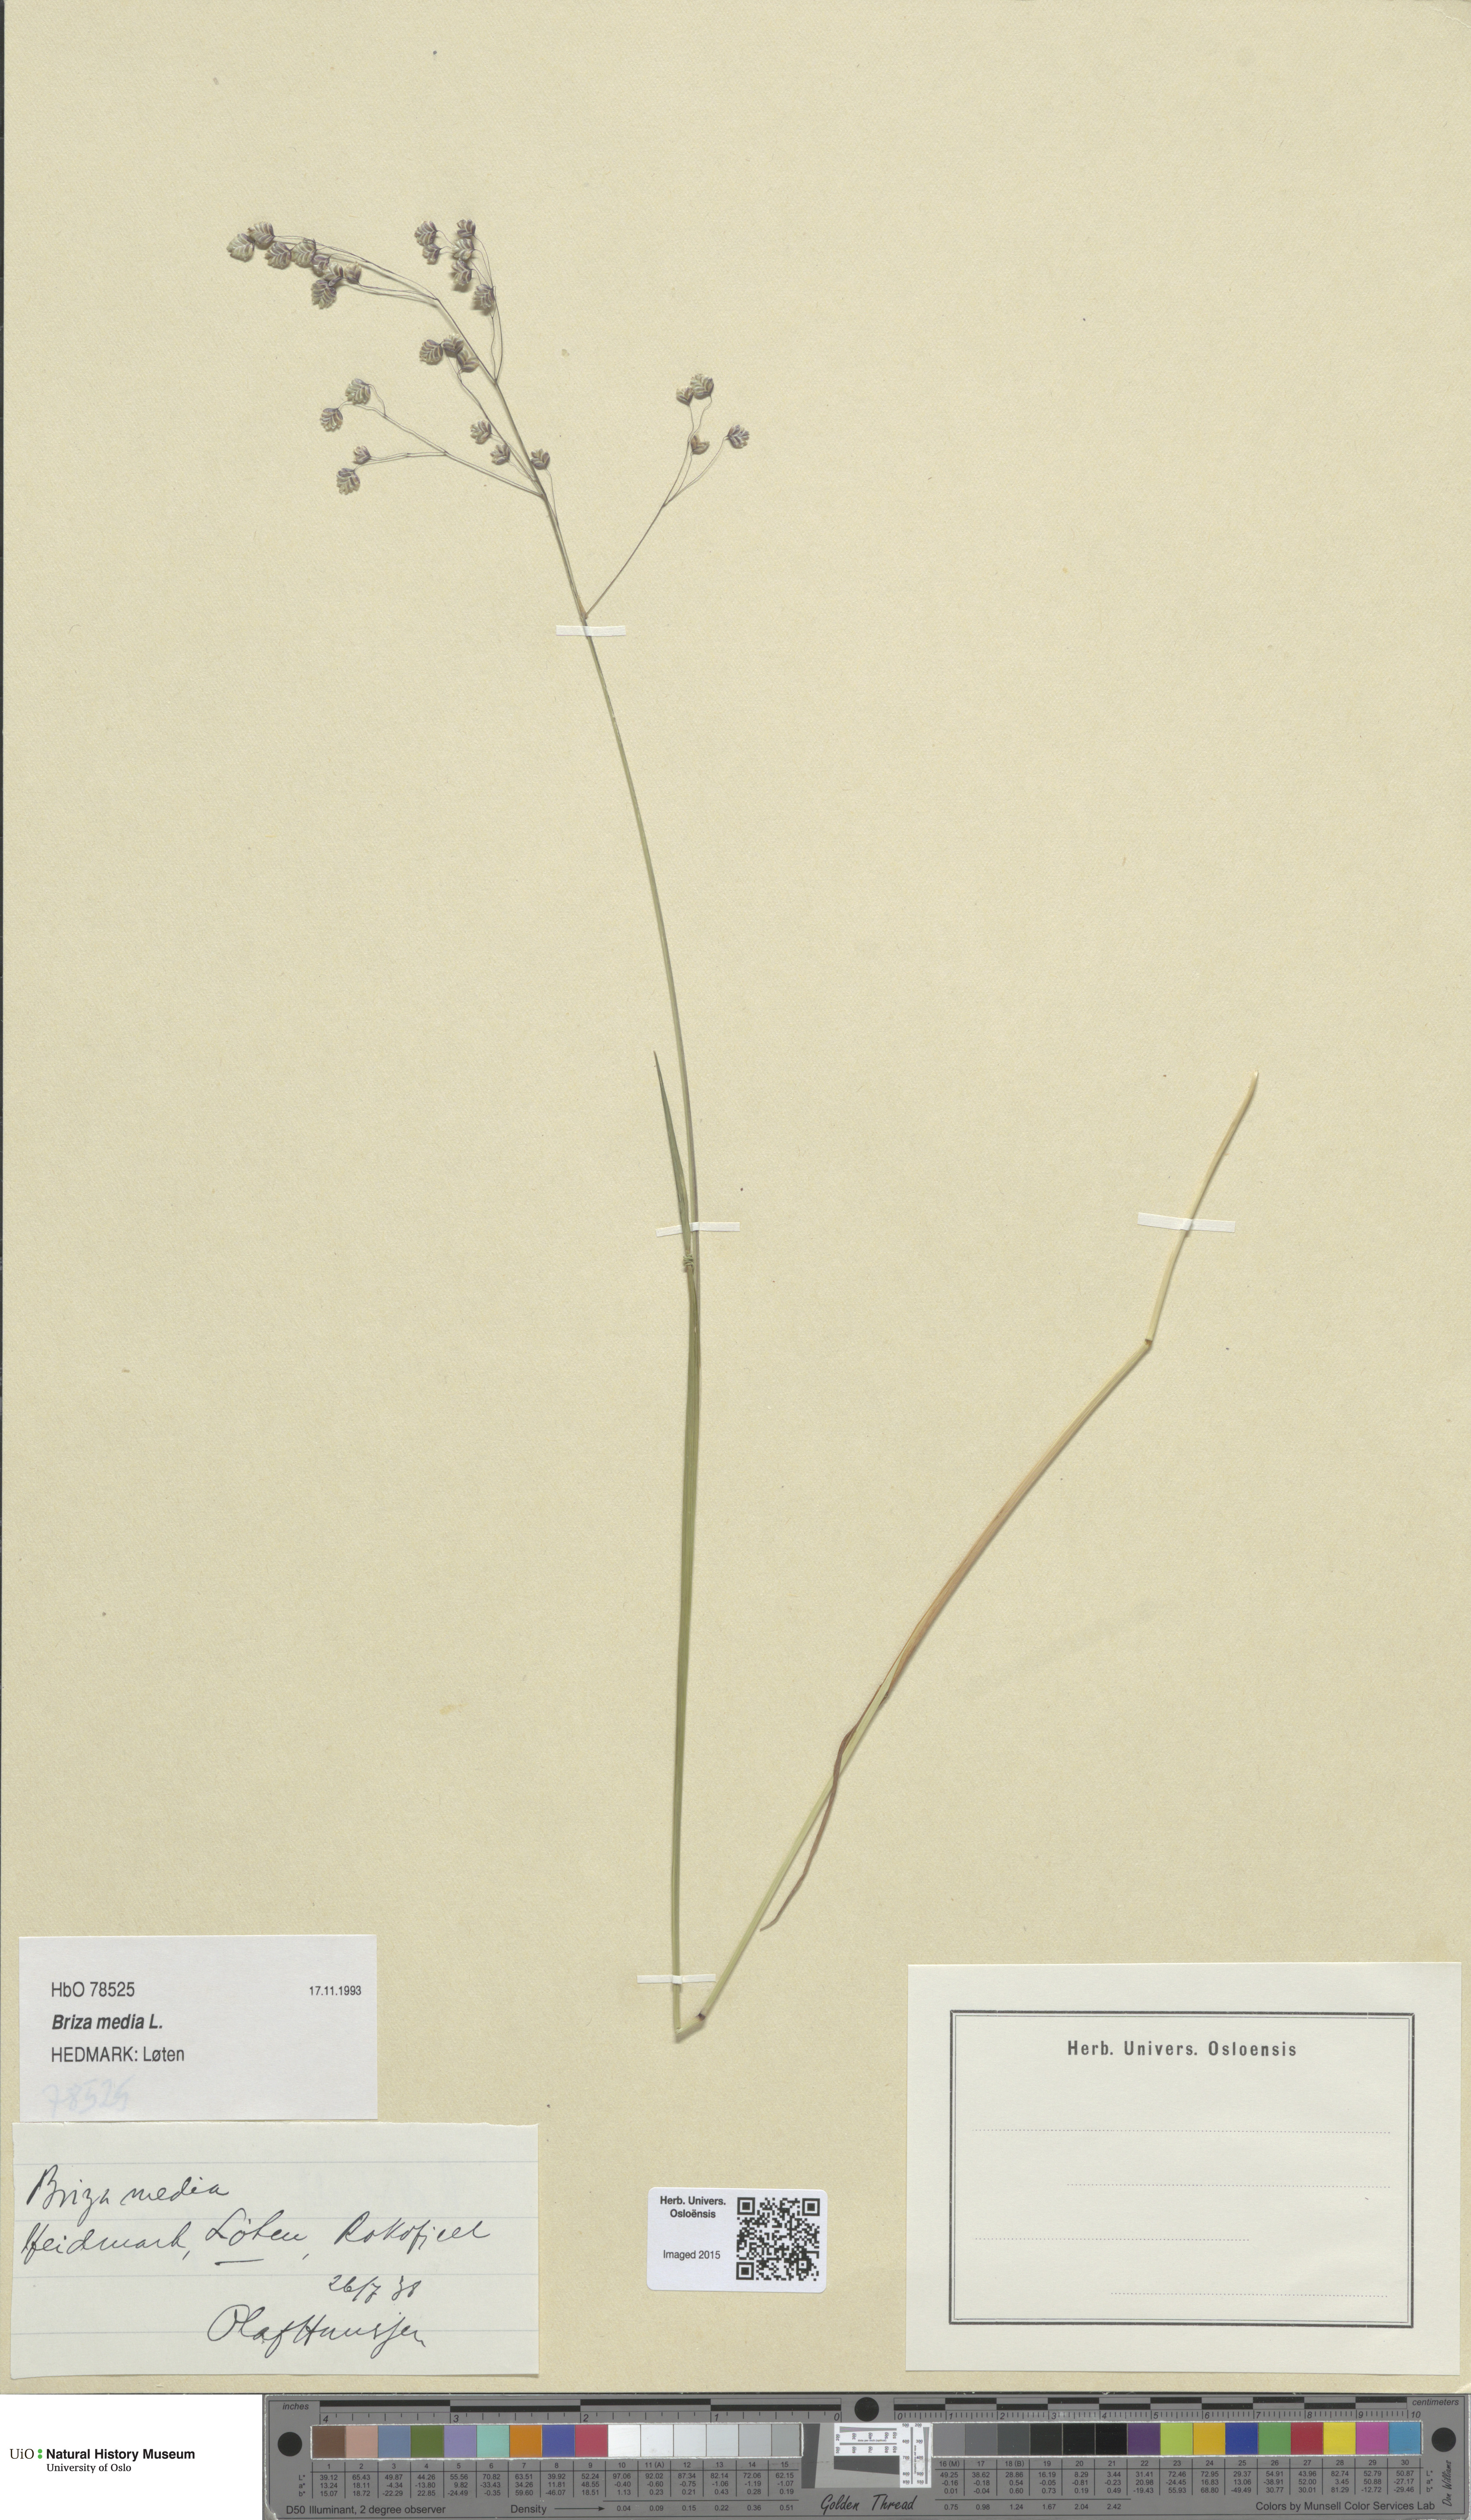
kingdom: Plantae
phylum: Tracheophyta
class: Liliopsida
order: Poales
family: Poaceae
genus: Briza
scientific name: Briza media
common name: Quaking grass
